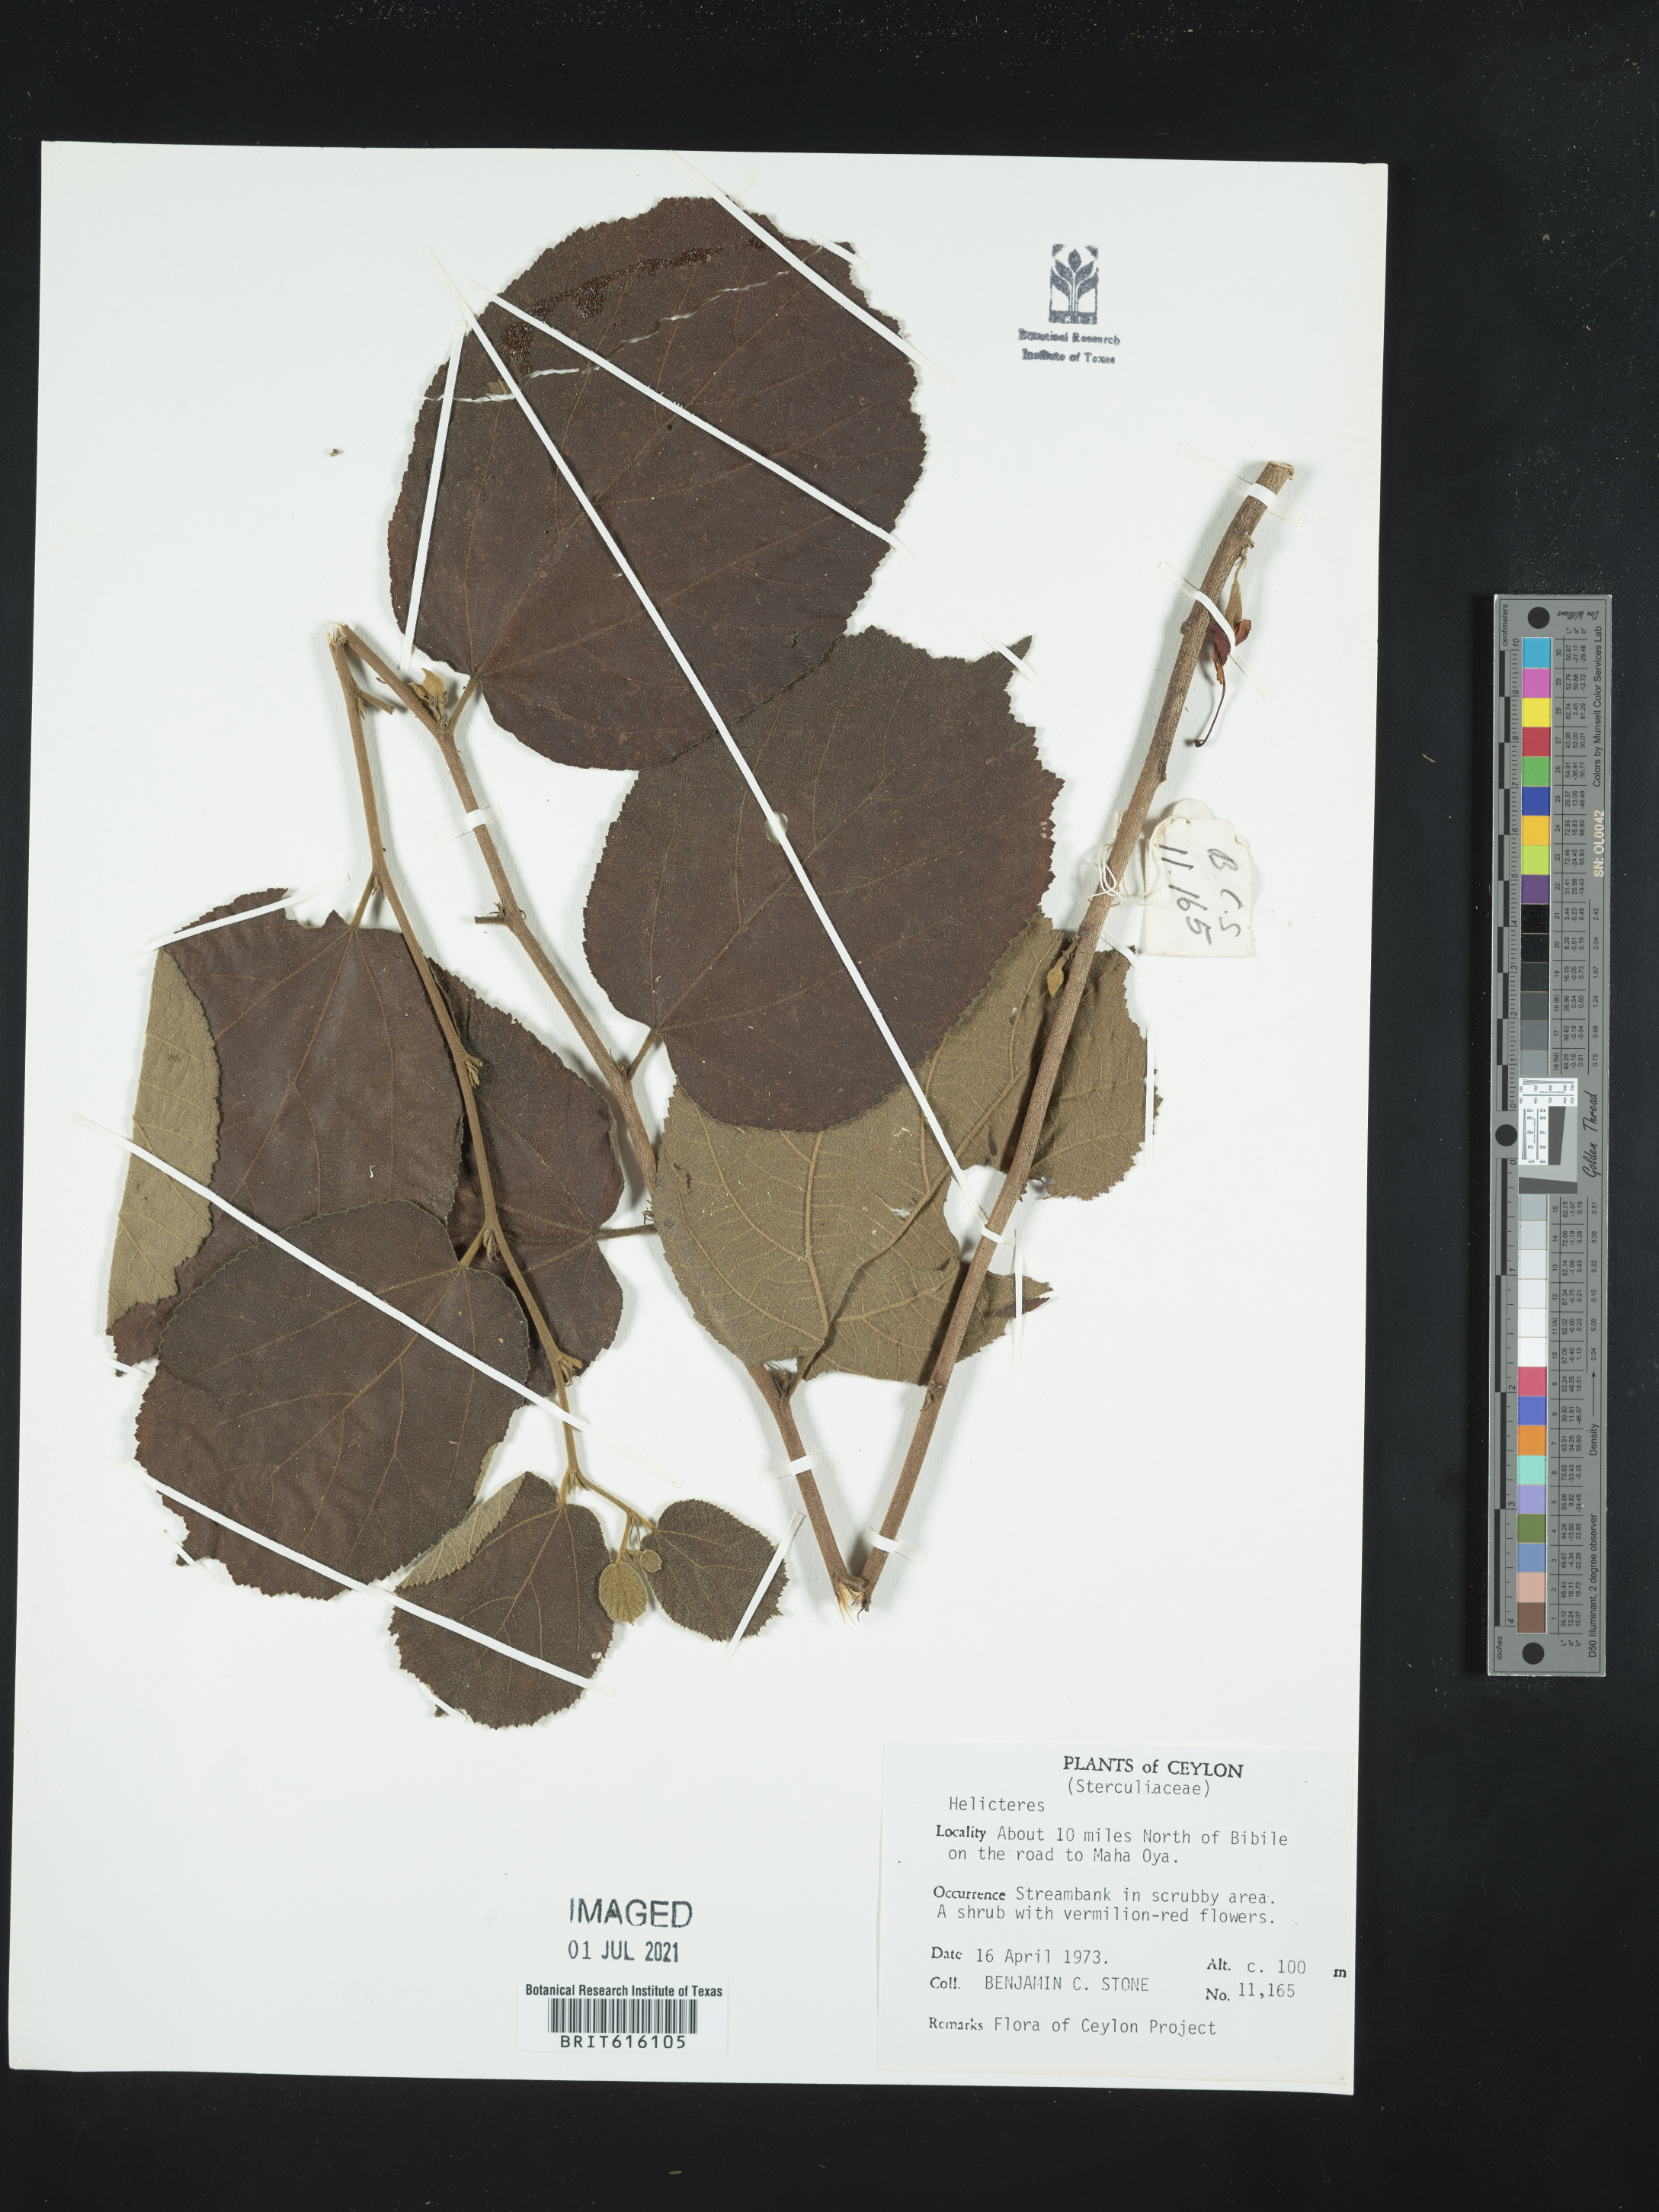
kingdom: Plantae
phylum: Tracheophyta
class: Magnoliopsida
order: Malvales
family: Malvaceae
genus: Helicteres
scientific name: Helicteres
